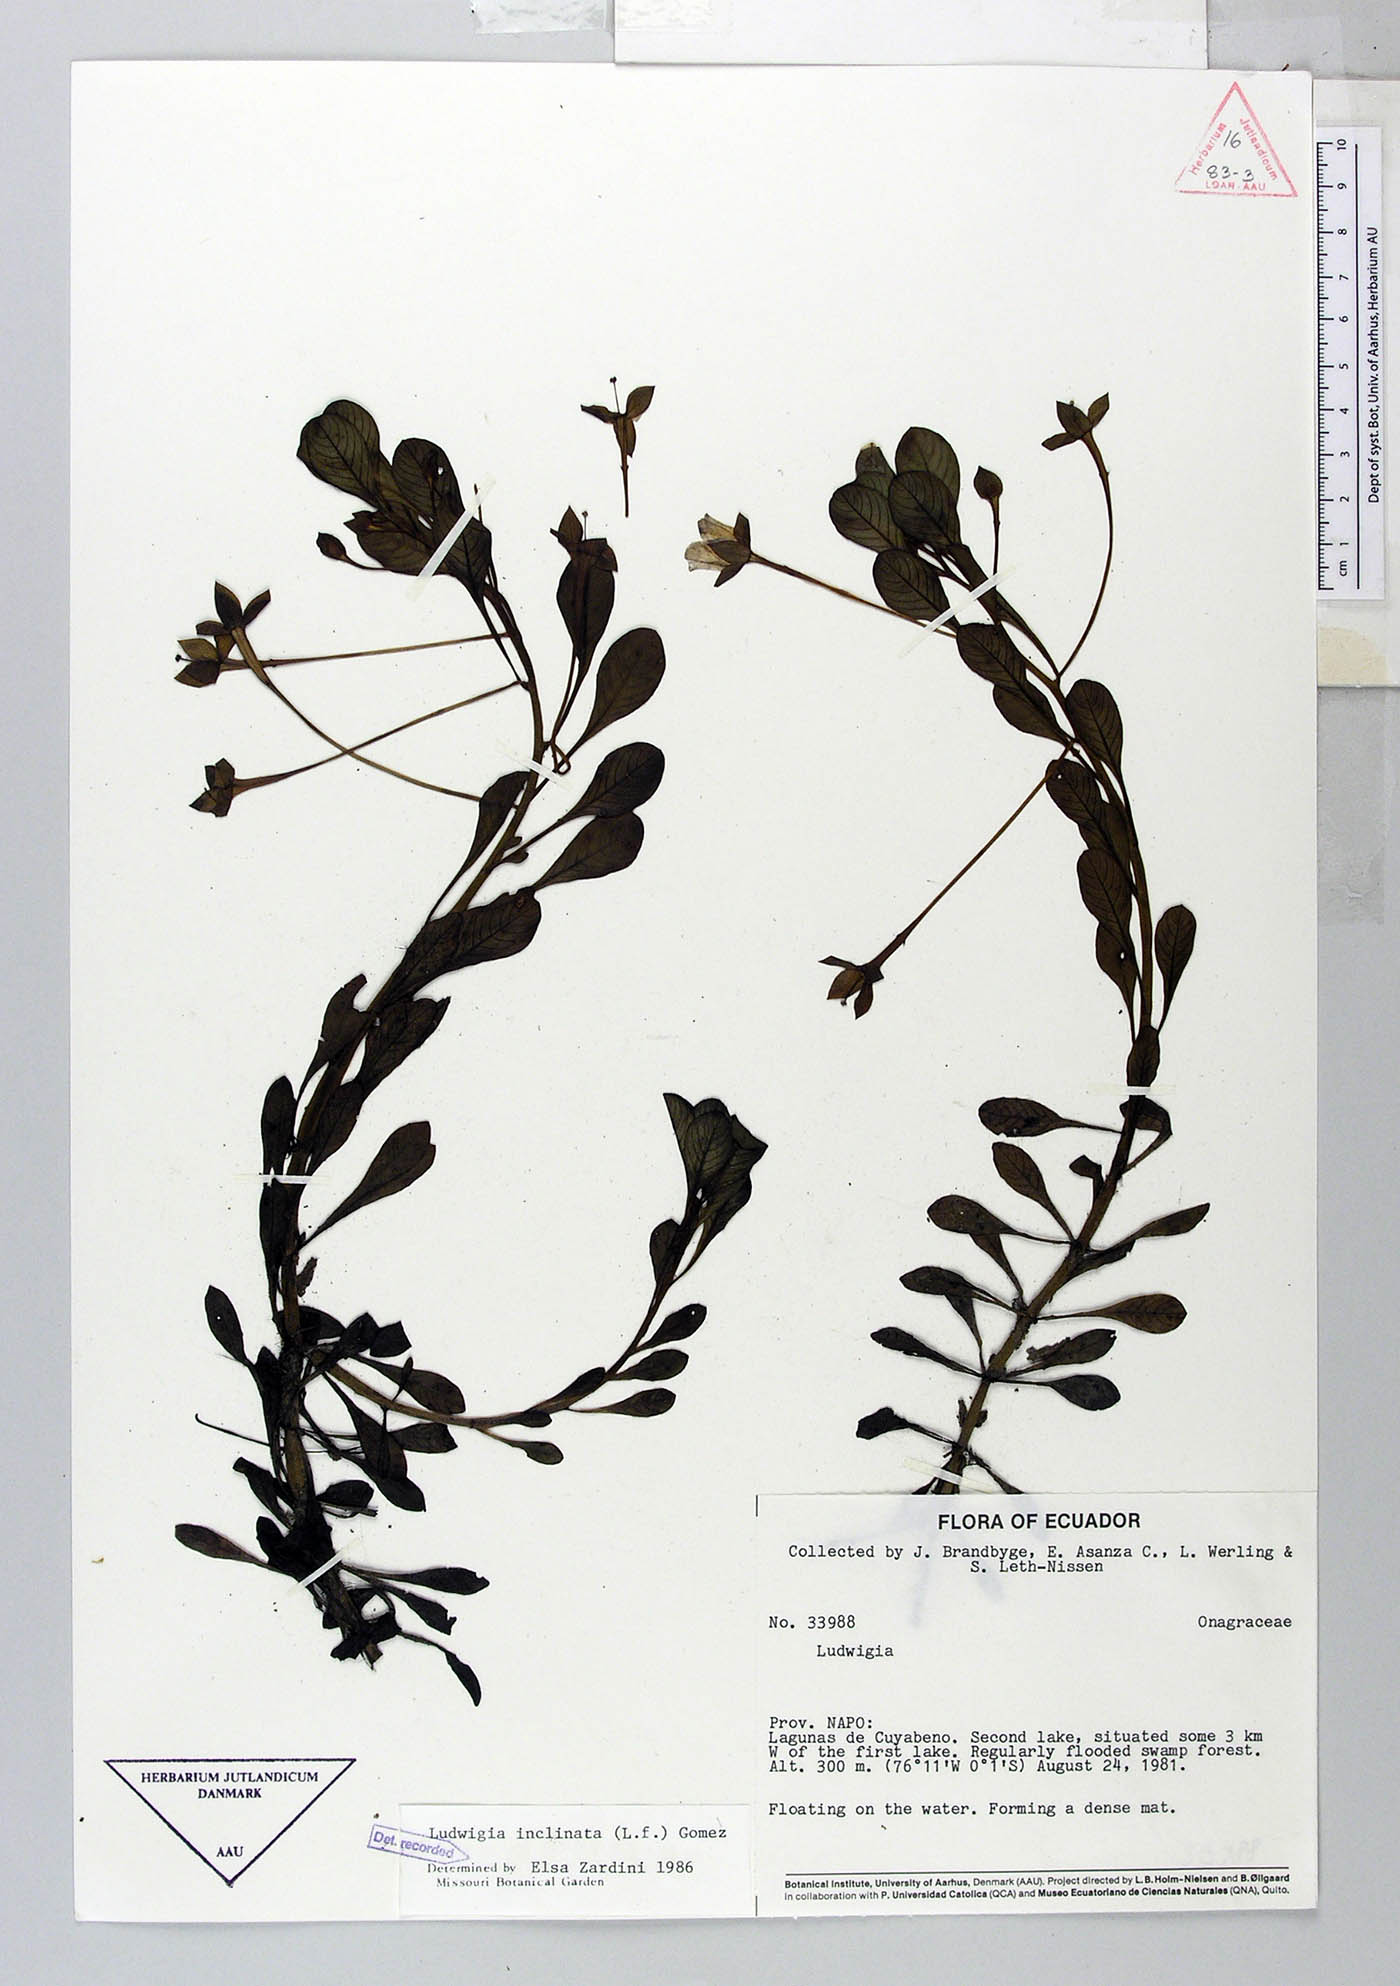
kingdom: Plantae
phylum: Tracheophyta
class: Magnoliopsida
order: Myrtales
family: Onagraceae
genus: Ludwigia
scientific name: Ludwigia inclinata
